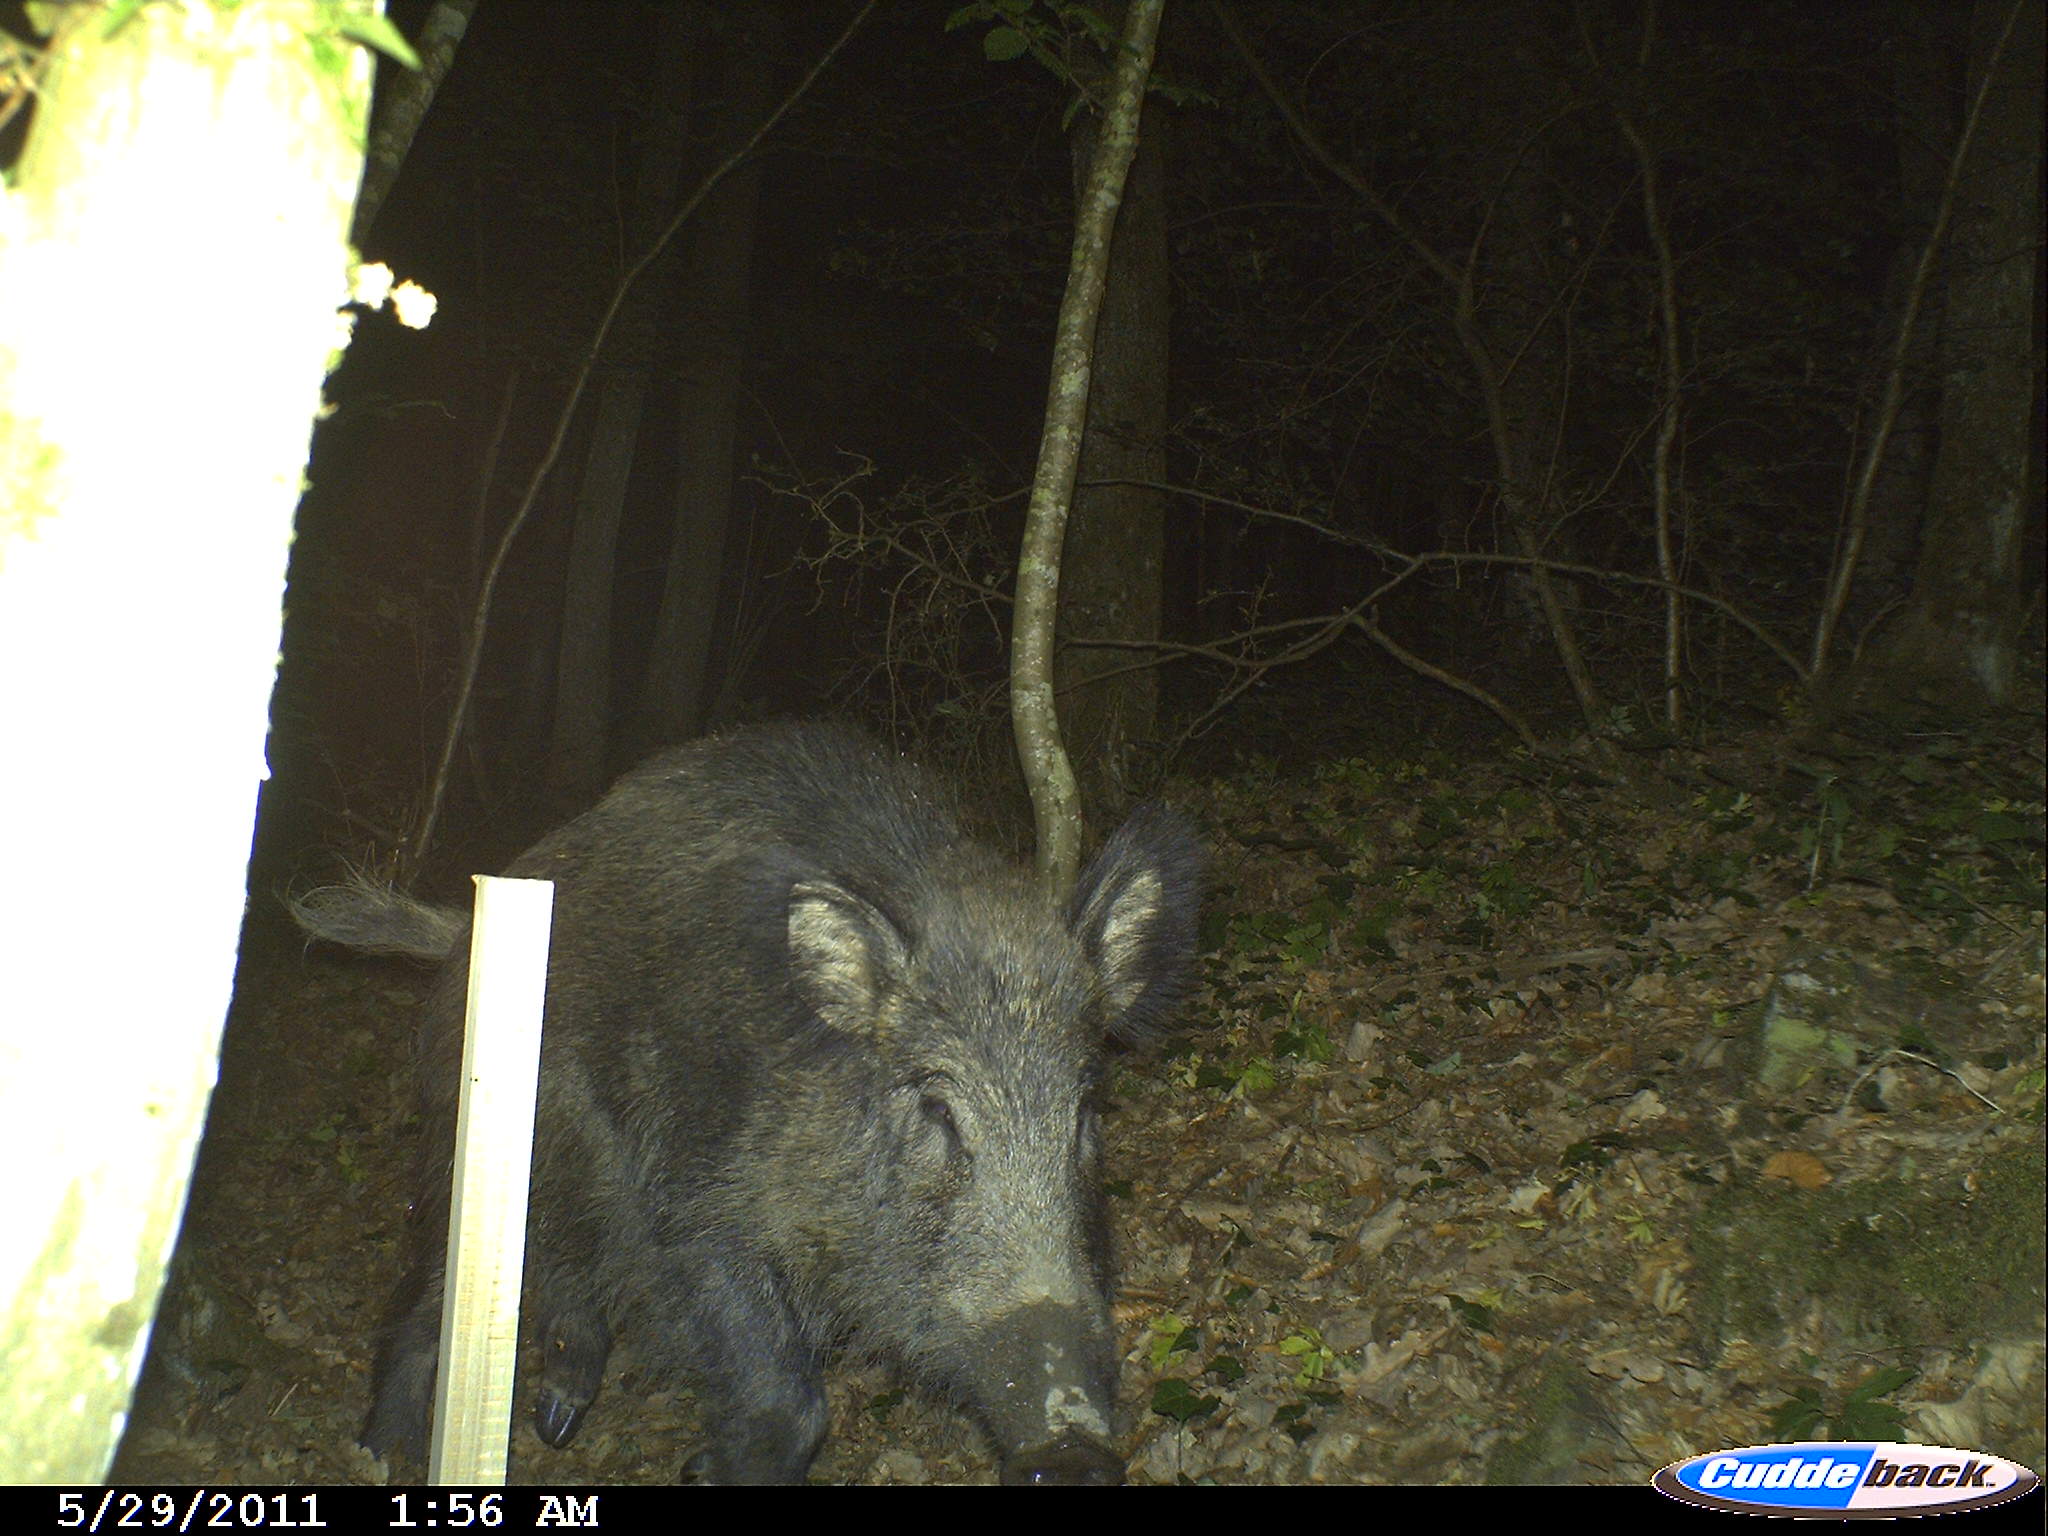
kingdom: Animalia
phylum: Chordata
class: Mammalia
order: Artiodactyla
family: Suidae
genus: Sus
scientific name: Sus scrofa
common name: Wild boar
